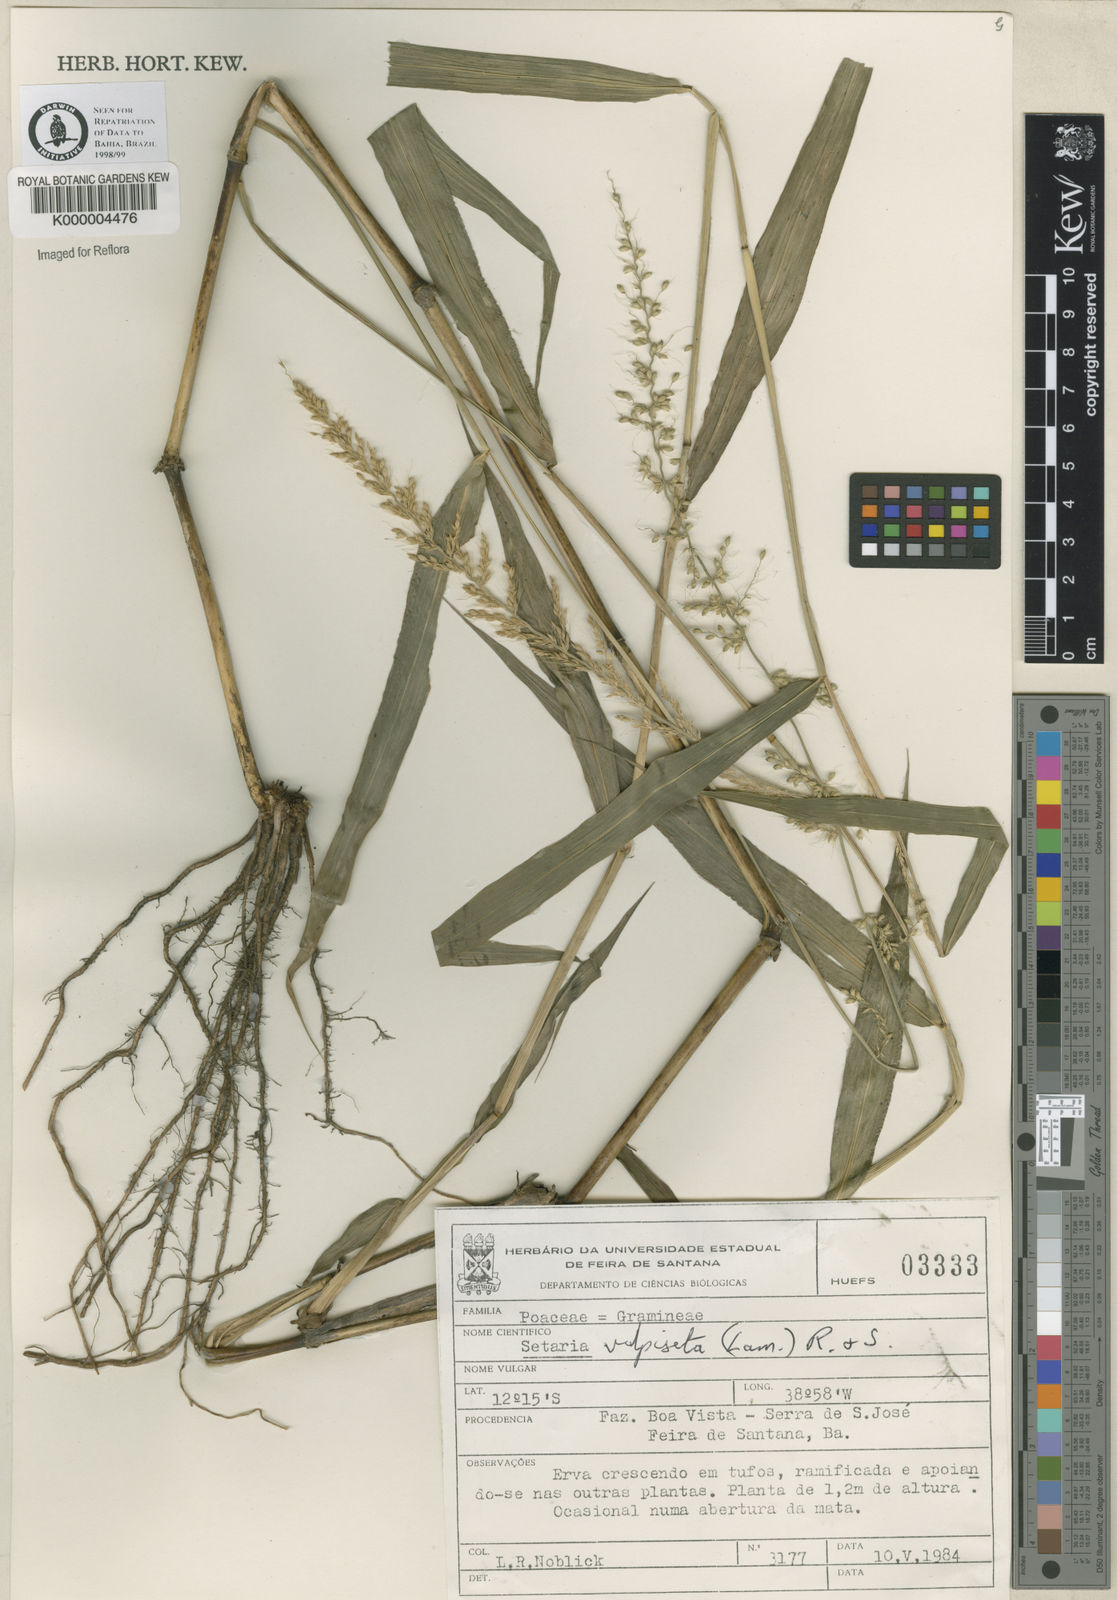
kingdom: Plantae
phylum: Tracheophyta
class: Liliopsida
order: Poales
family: Poaceae
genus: Setaria
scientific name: Setaria vulpiseta
